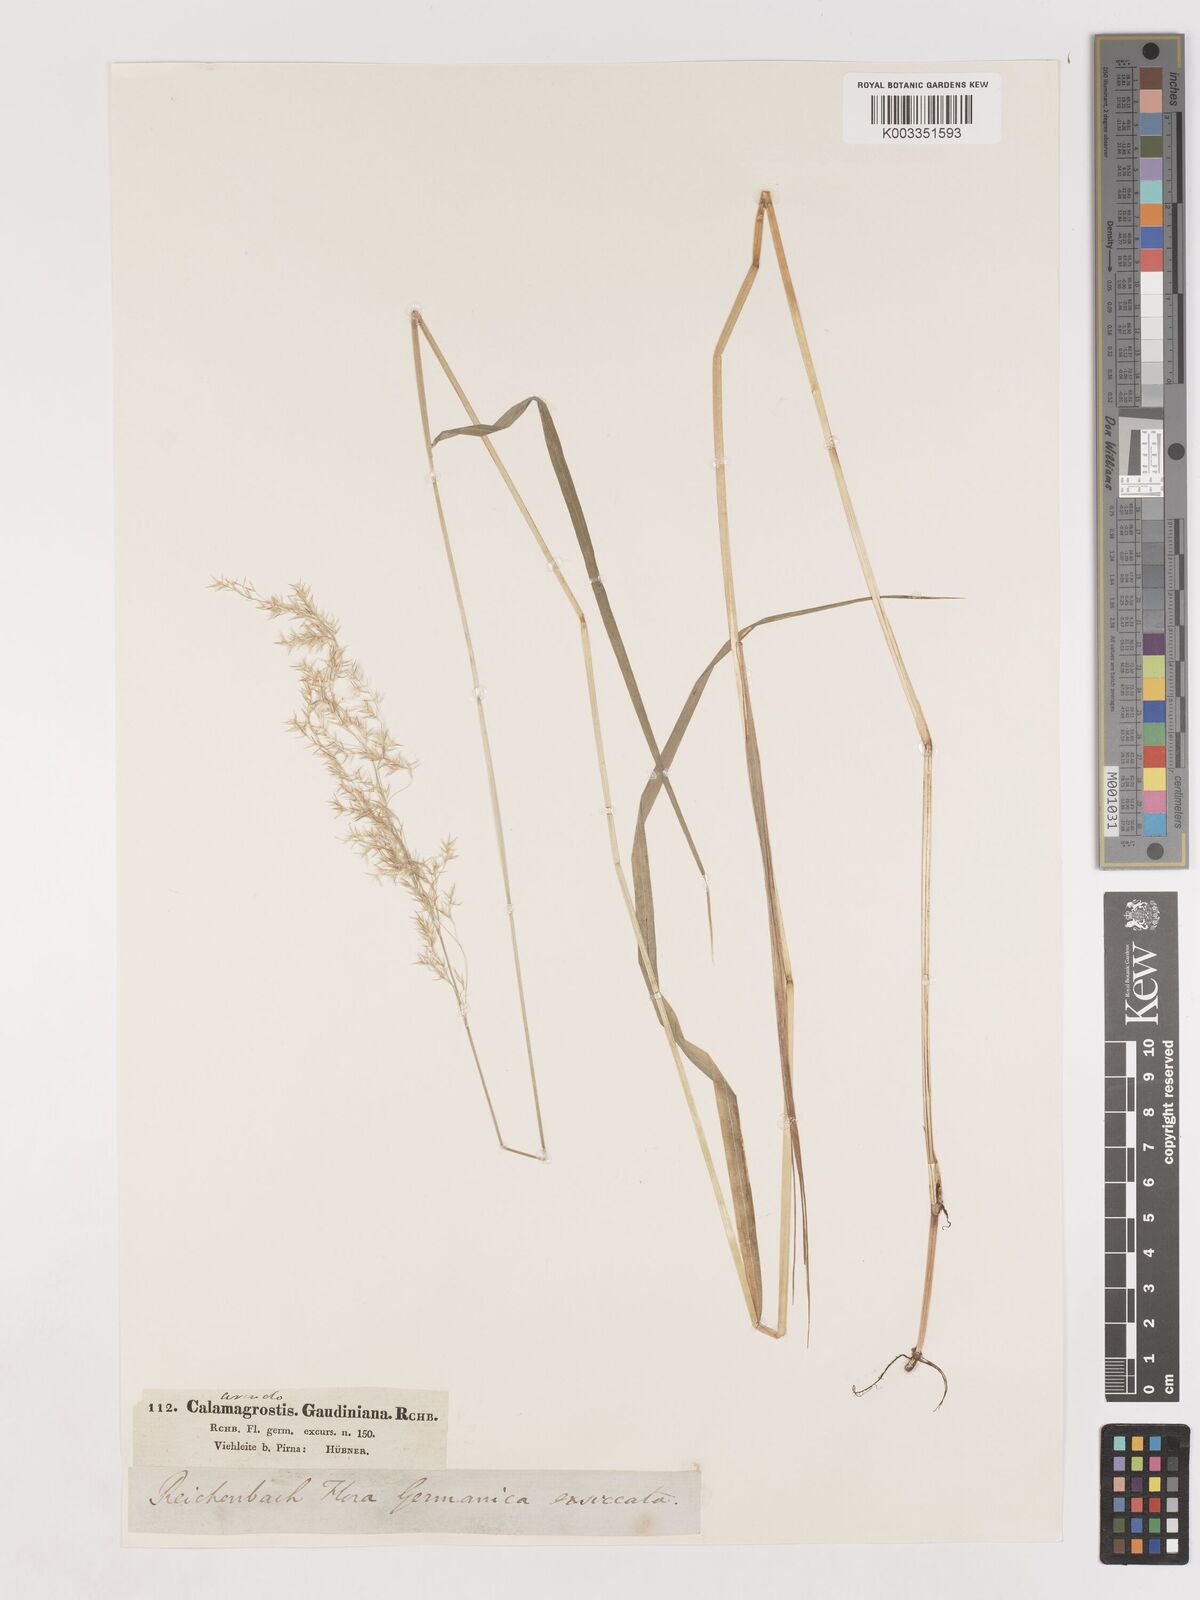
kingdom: Plantae
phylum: Tracheophyta
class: Liliopsida
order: Poales
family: Poaceae
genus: Calamagrostis
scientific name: Calamagrostis canescens
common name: Purple small-reed
